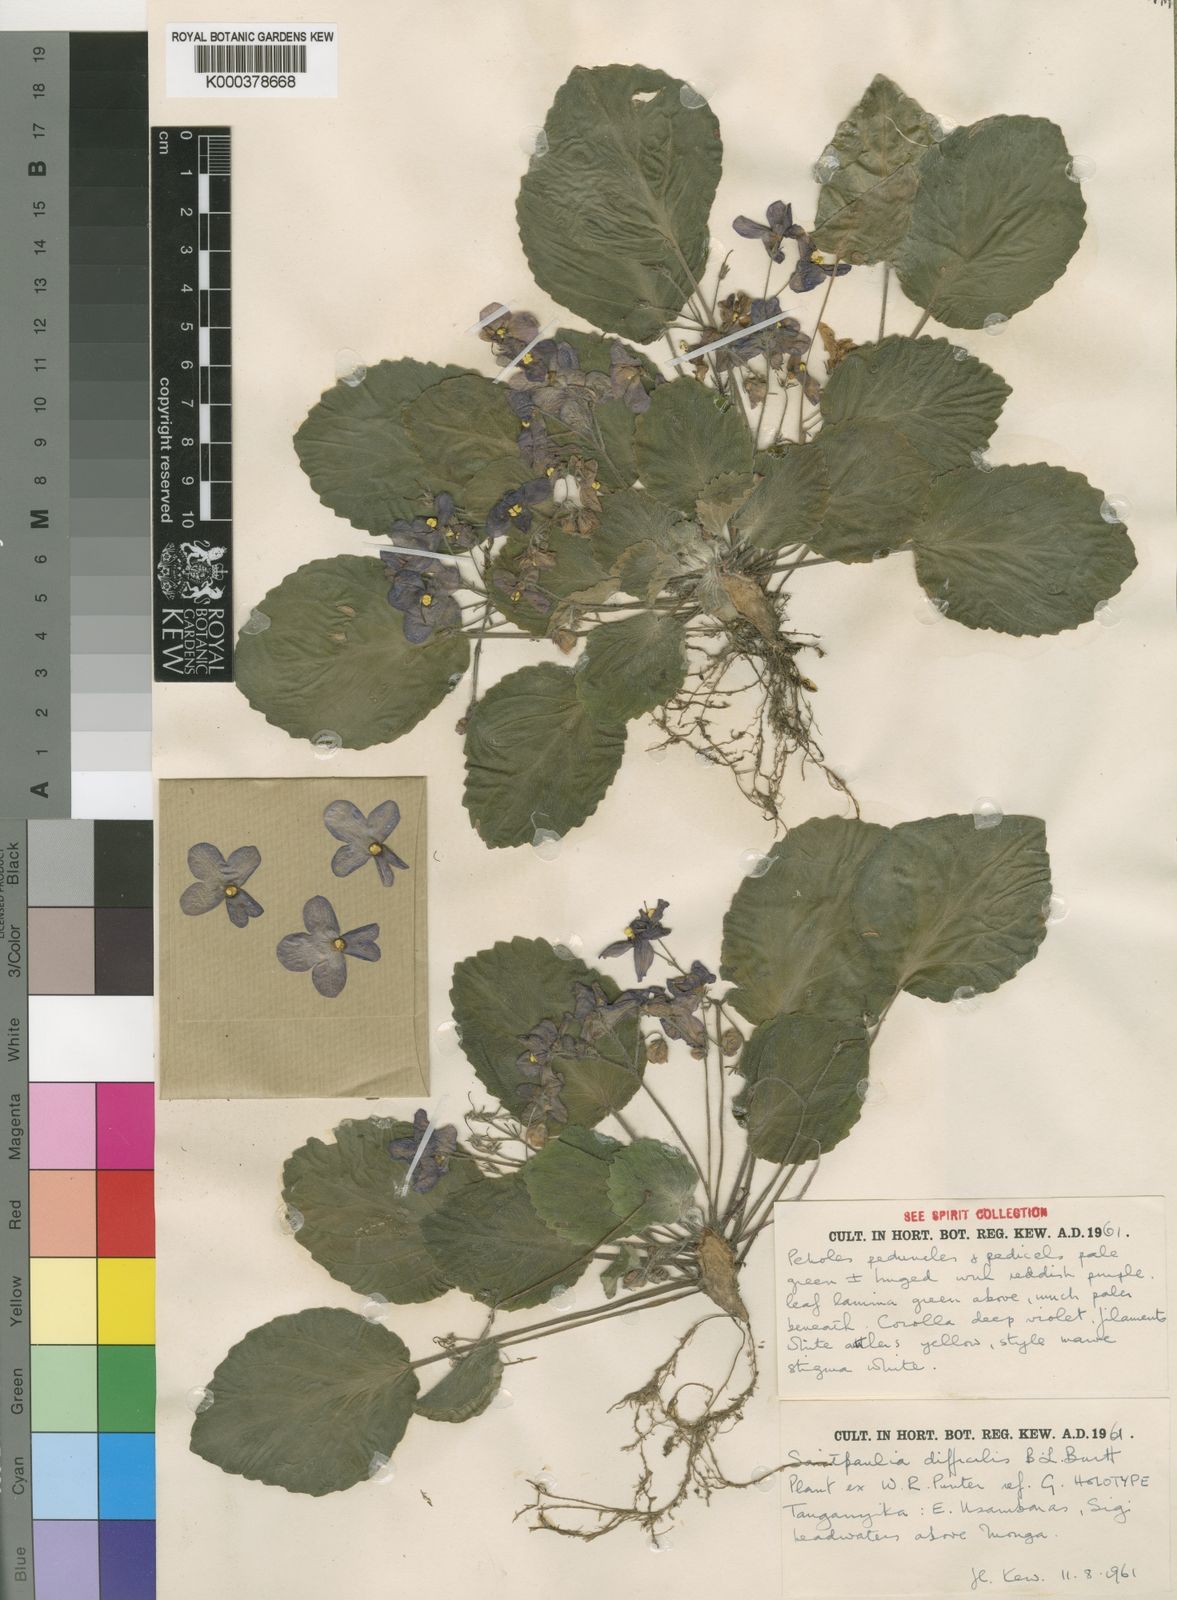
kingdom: Plantae
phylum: Tracheophyta
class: Magnoliopsida
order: Lamiales
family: Gesneriaceae
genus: Streptocarpus
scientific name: Streptocarpus ionanthus
